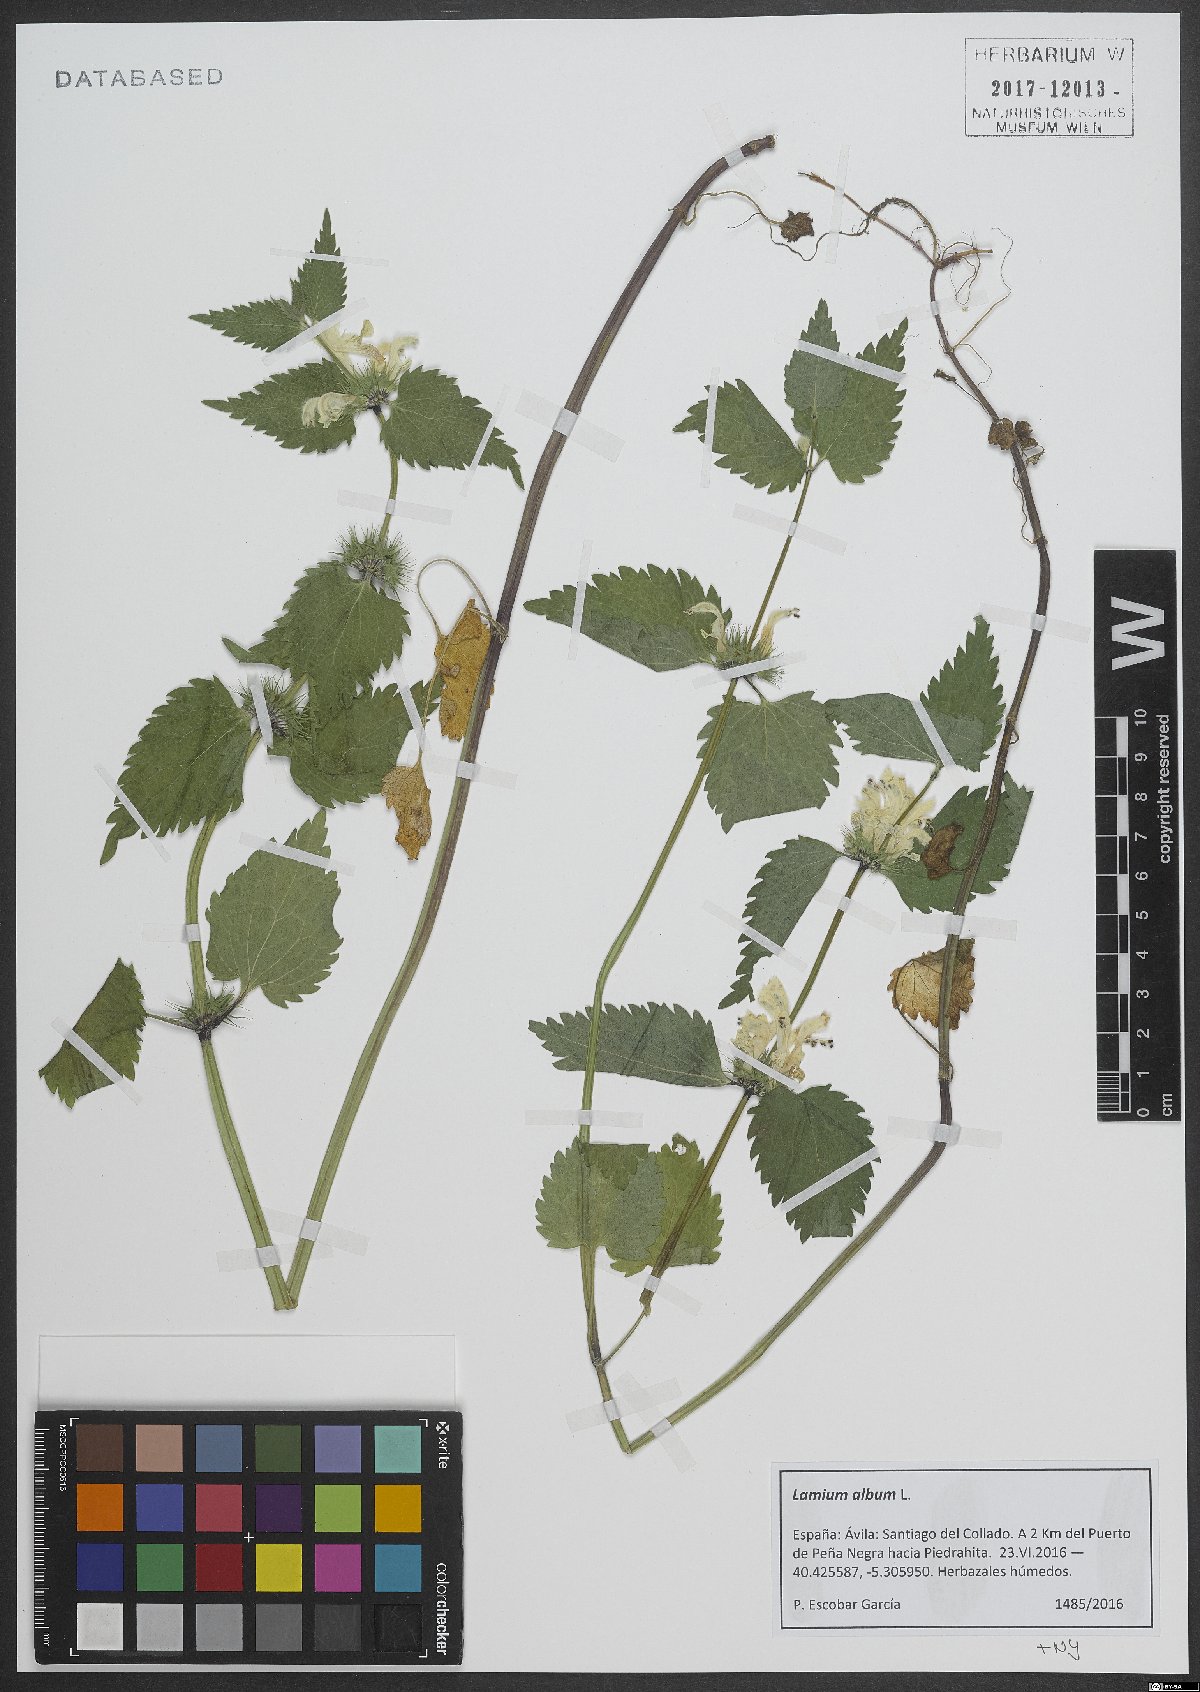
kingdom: Plantae
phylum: Tracheophyta
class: Magnoliopsida
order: Lamiales
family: Lamiaceae
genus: Lamium
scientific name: Lamium album
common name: White dead-nettle
